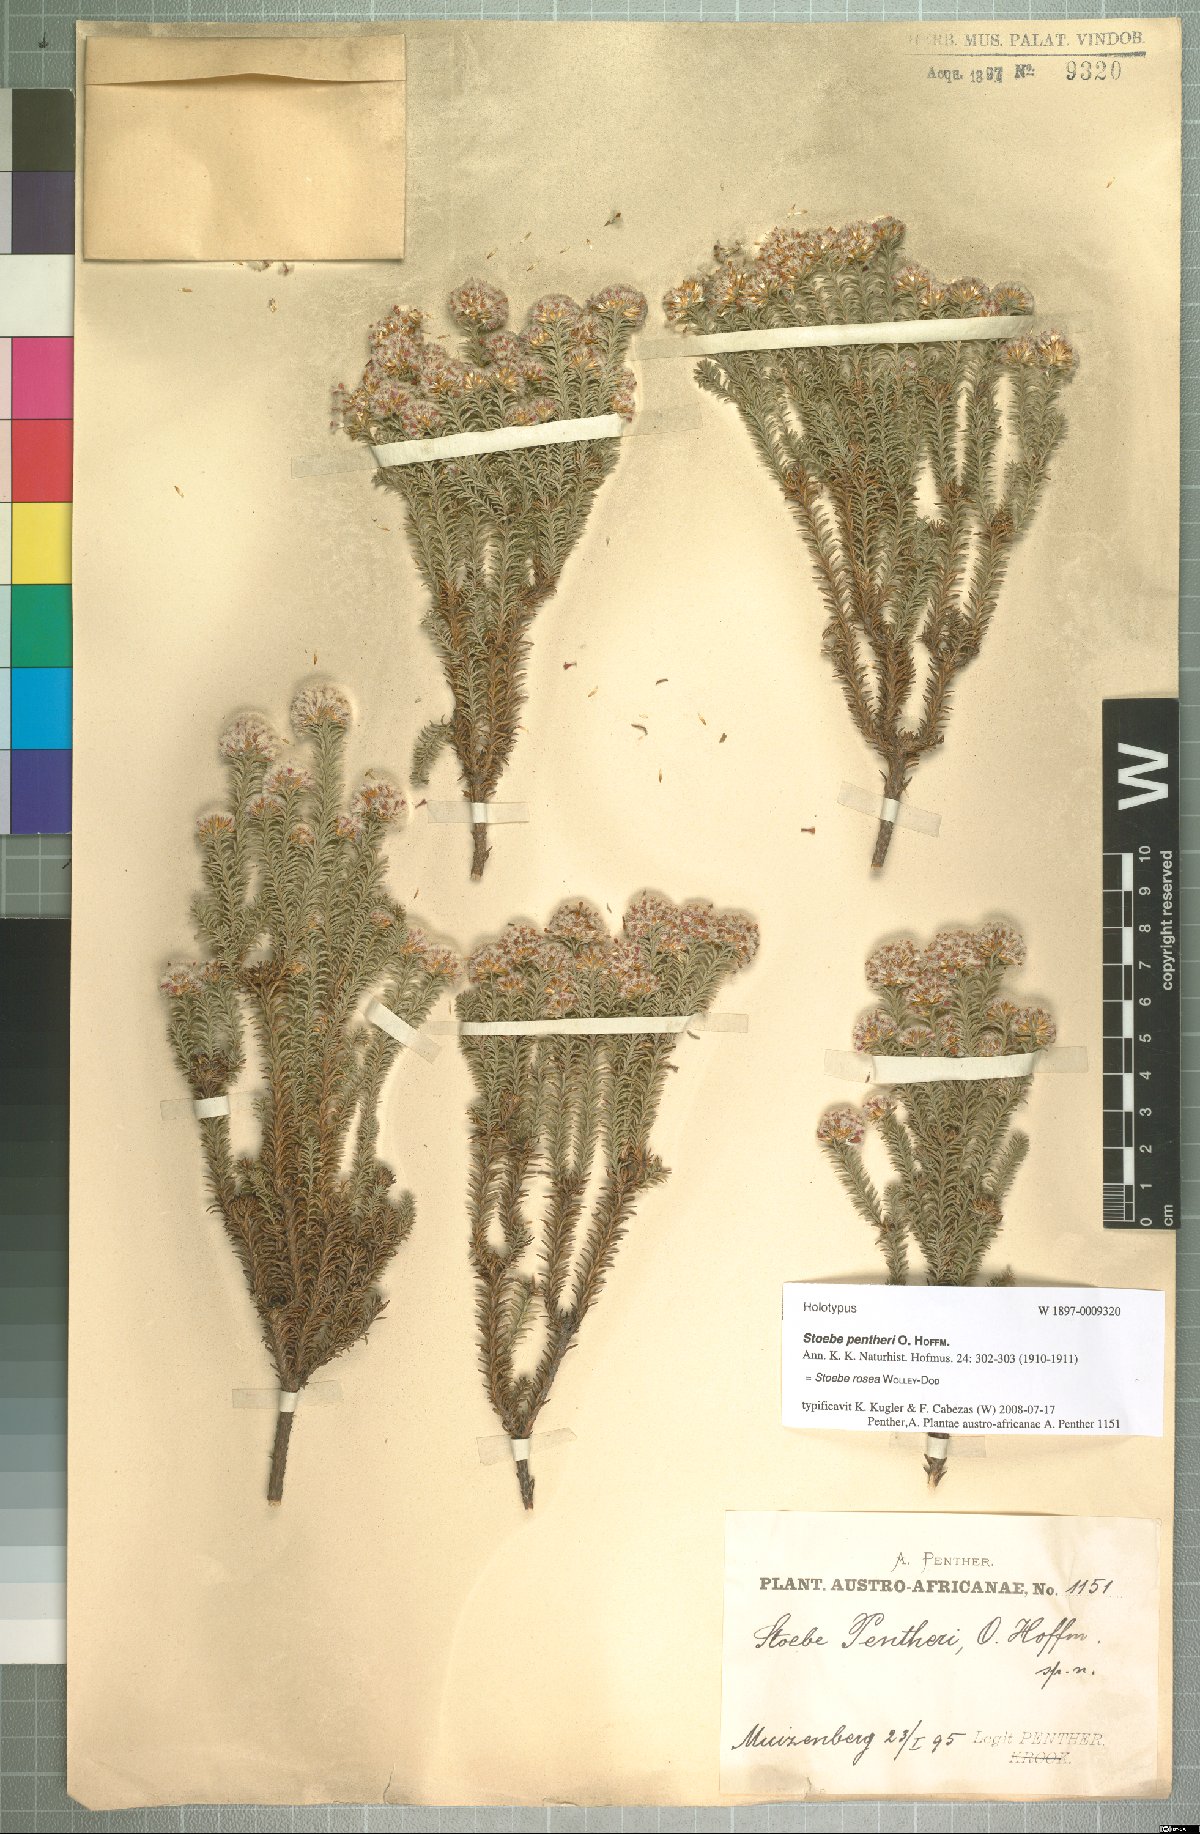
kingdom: Plantae
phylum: Tracheophyta
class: Magnoliopsida
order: Asterales
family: Asteraceae
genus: Stoebe
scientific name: Stoebe rosea
